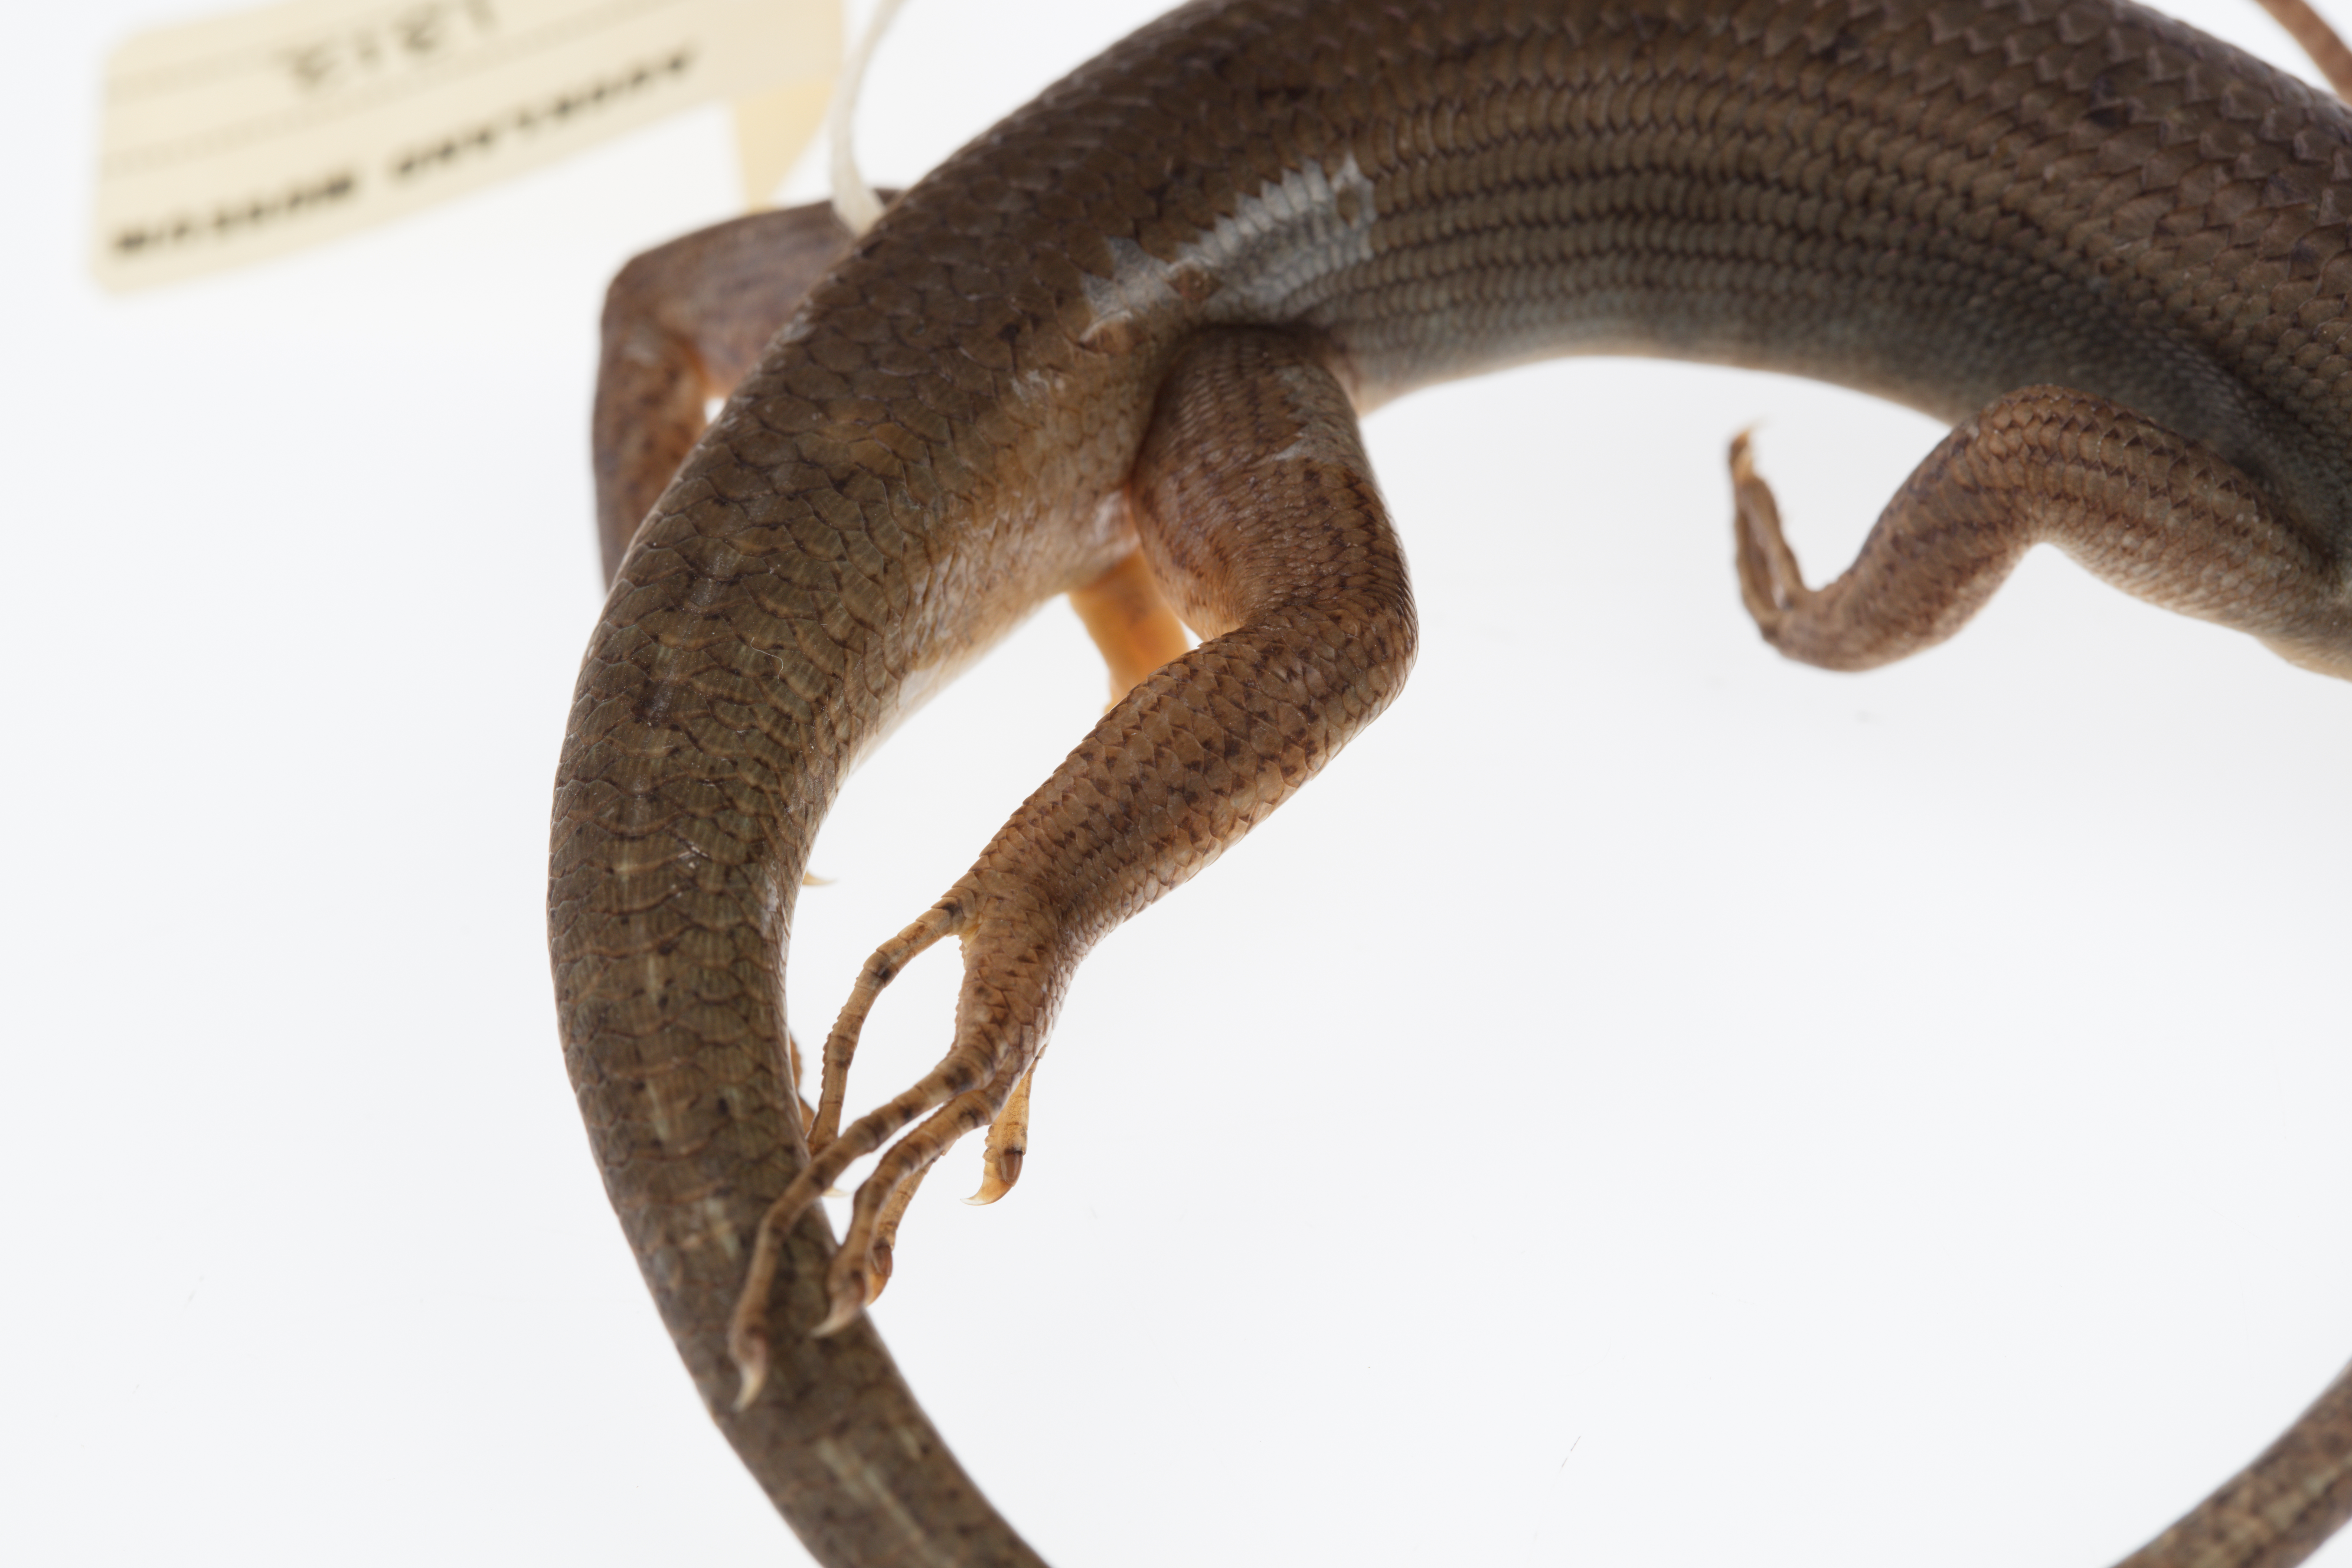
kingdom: Animalia
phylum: Chordata
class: Squamata
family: Scincidae
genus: Emoia
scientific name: Emoia
